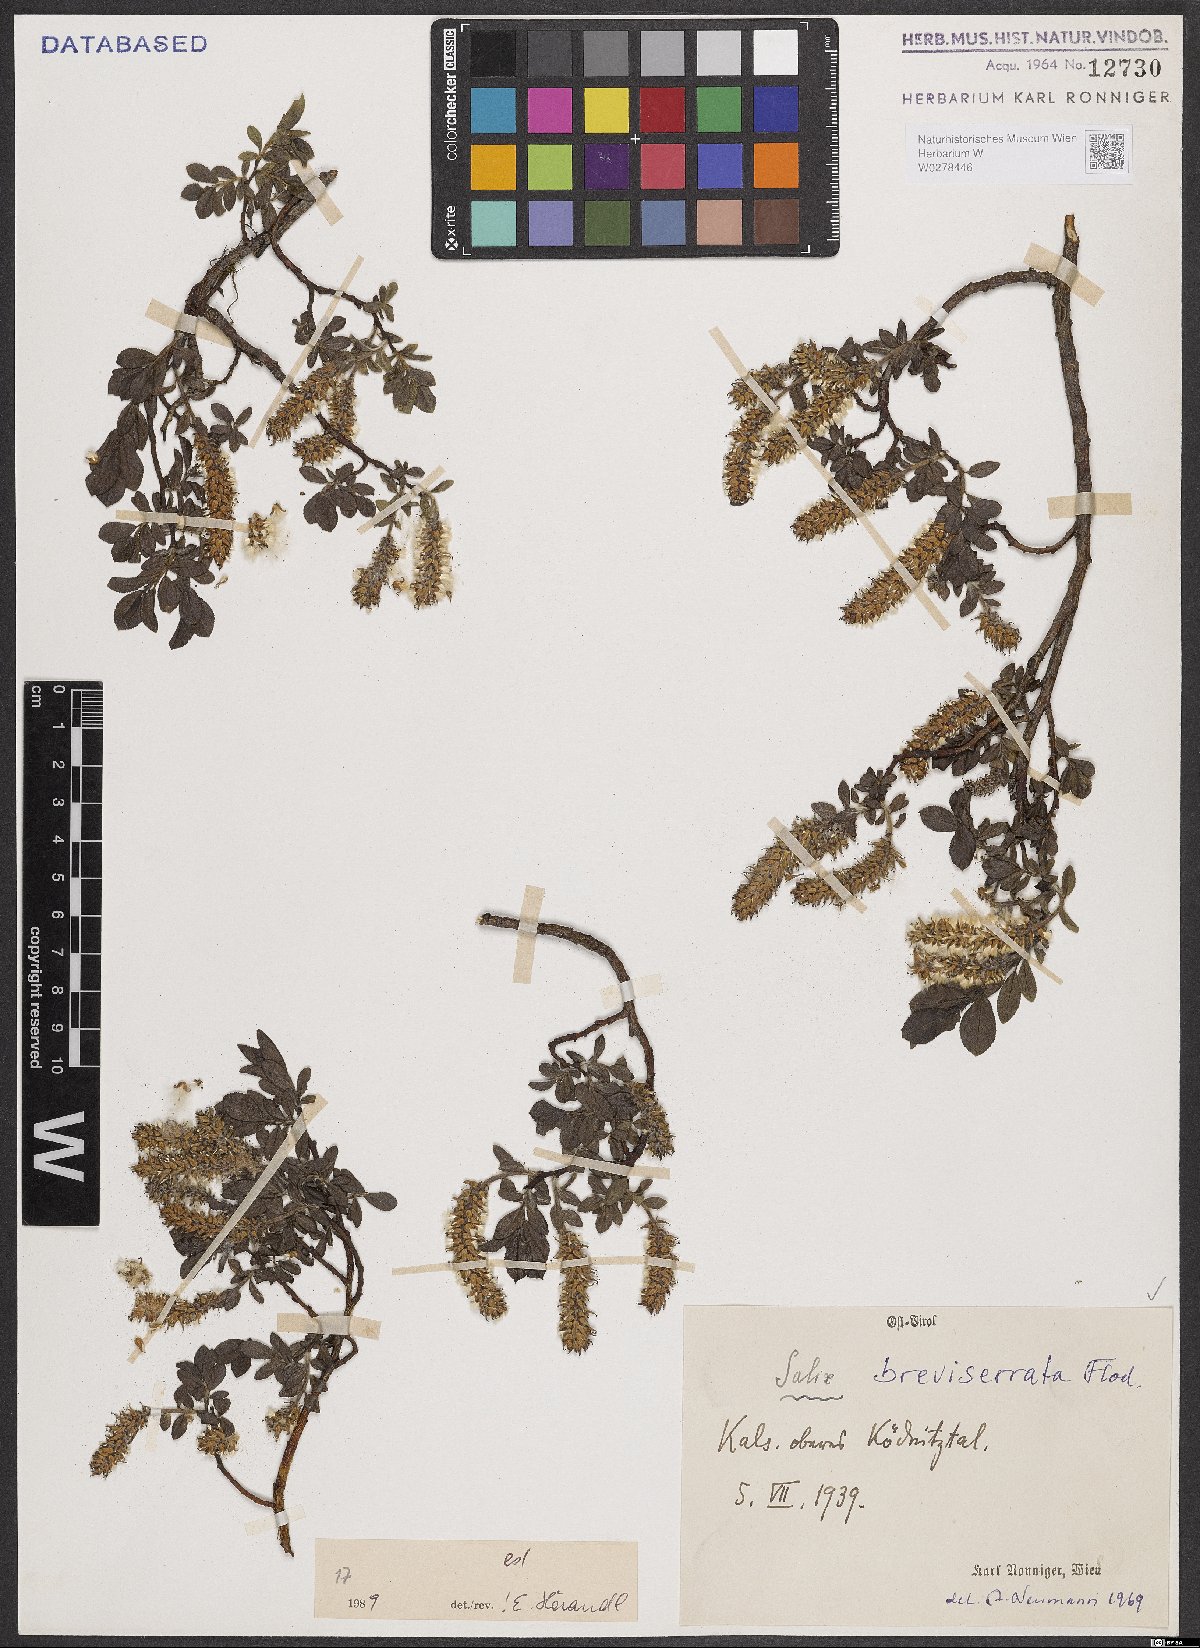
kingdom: Plantae
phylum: Tracheophyta
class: Magnoliopsida
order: Malpighiales
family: Salicaceae
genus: Salix
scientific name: Salix breviserrata
